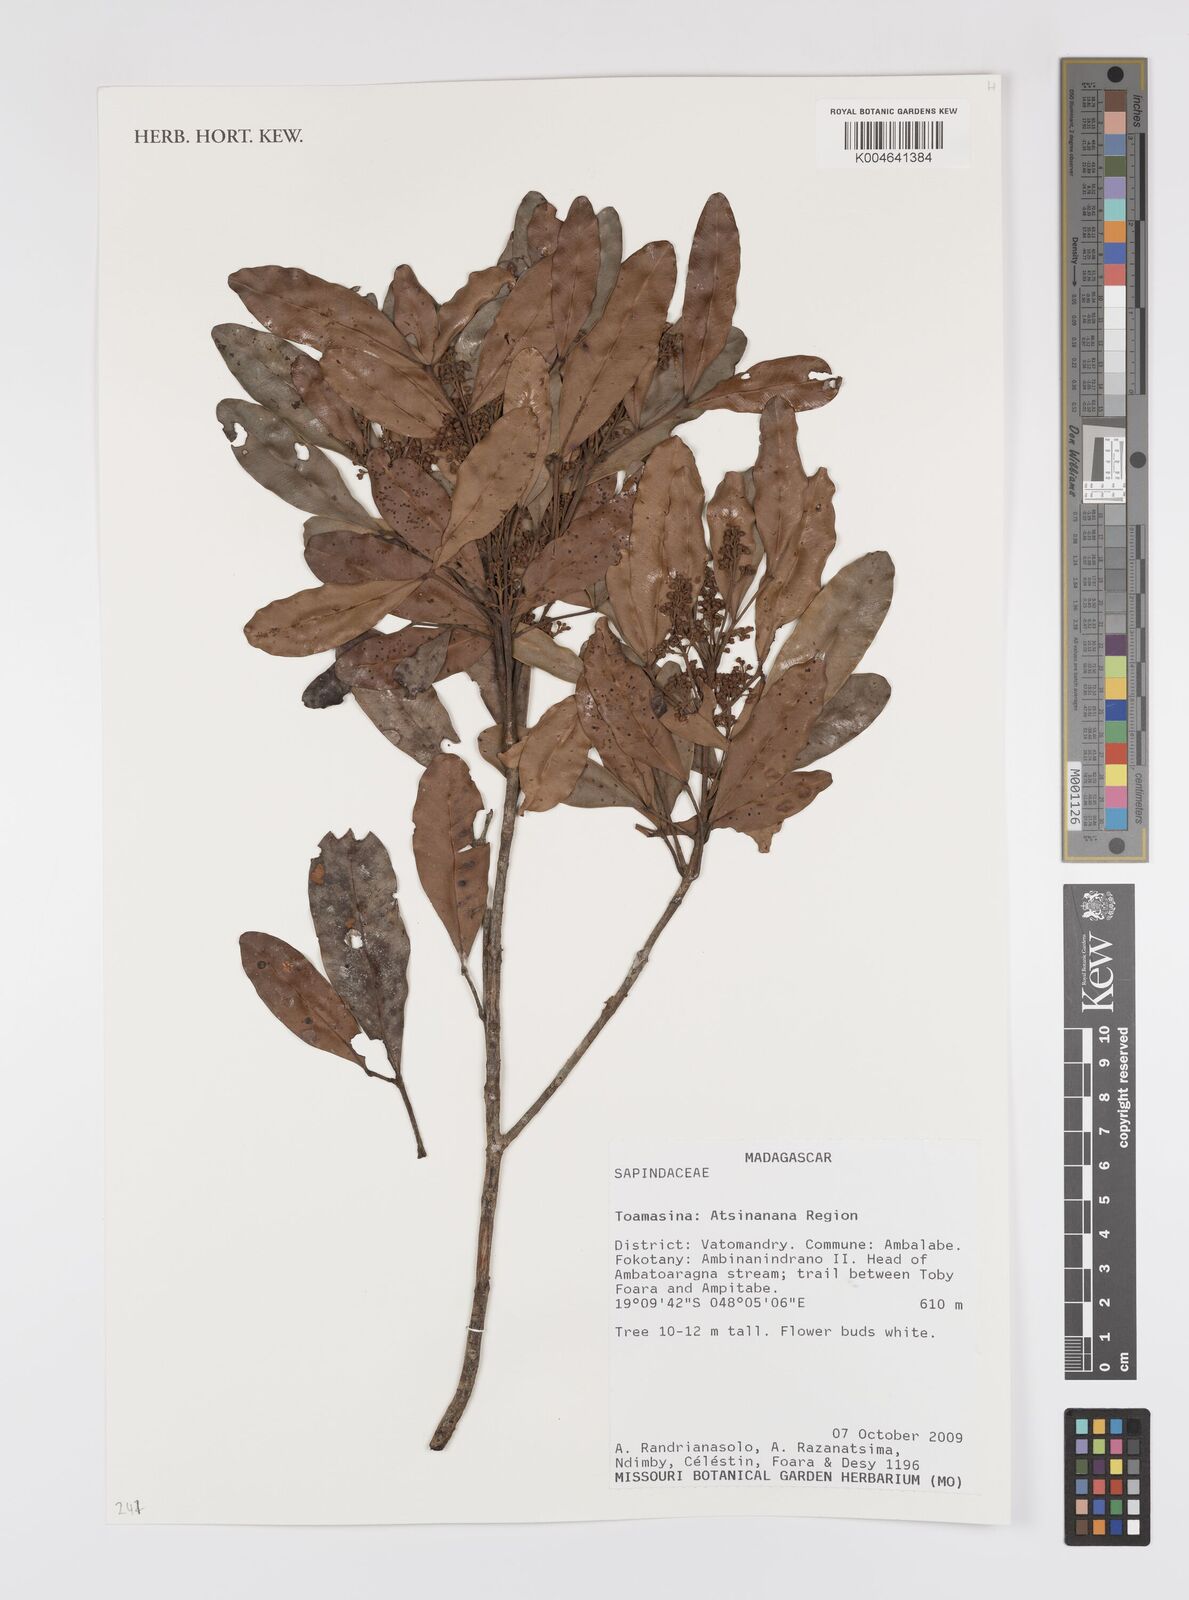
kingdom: Plantae
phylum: Tracheophyta
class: Magnoliopsida
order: Sapindales
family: Sapindaceae
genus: Tina
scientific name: Tina
